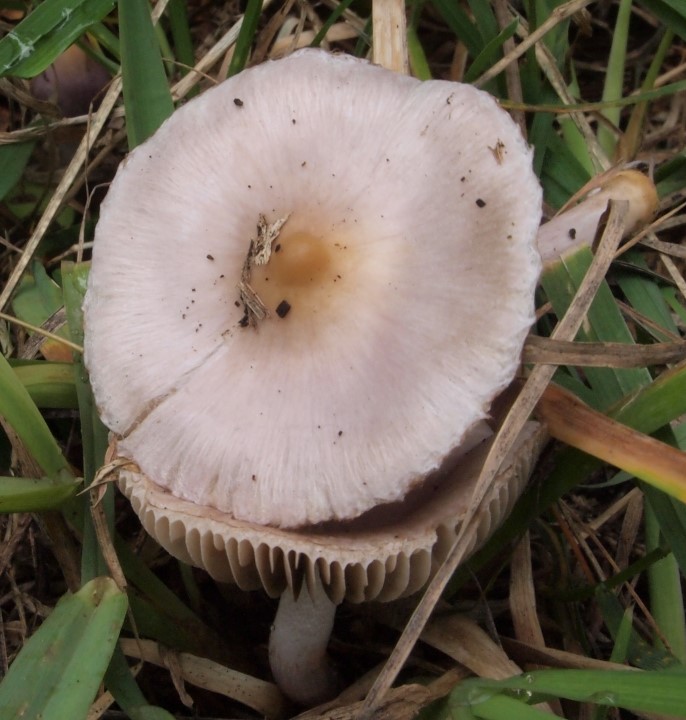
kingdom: Fungi
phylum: Basidiomycota
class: Agaricomycetes
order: Agaricales
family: Inocybaceae
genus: Inocybe
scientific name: Inocybe geophylla
